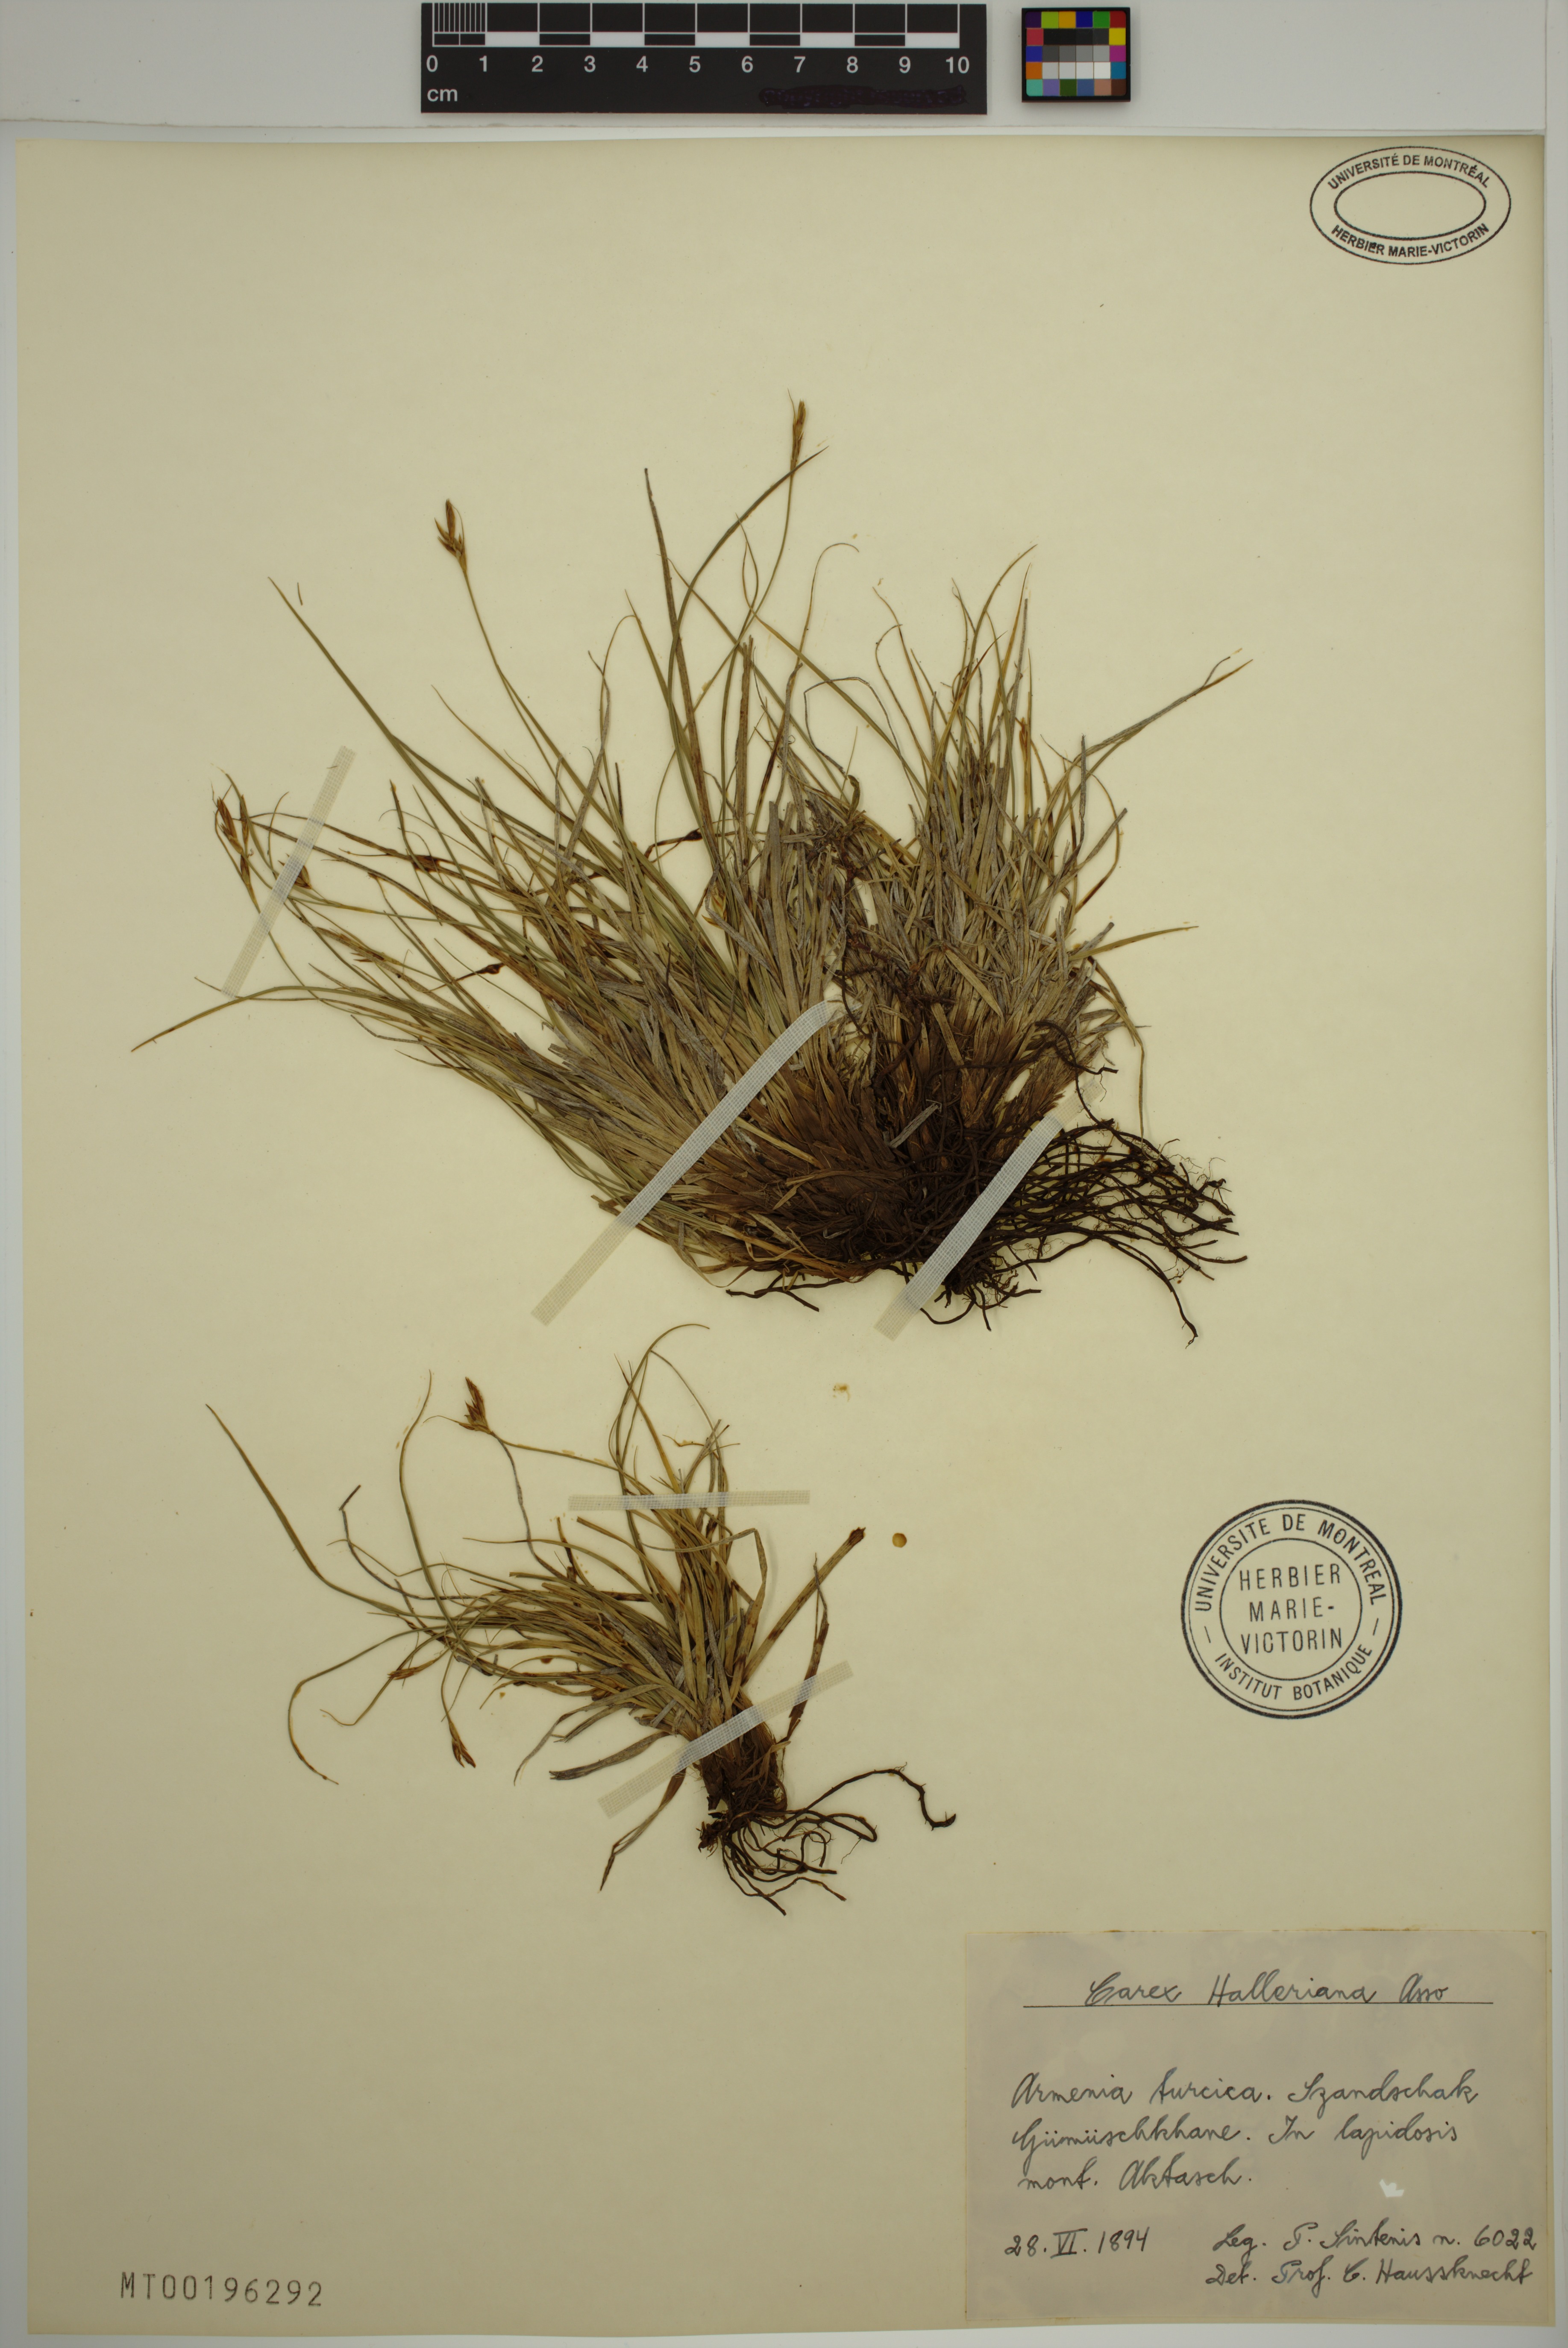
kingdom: Plantae
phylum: Tracheophyta
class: Liliopsida
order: Poales
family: Cyperaceae
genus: Carex
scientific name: Carex halleriana
